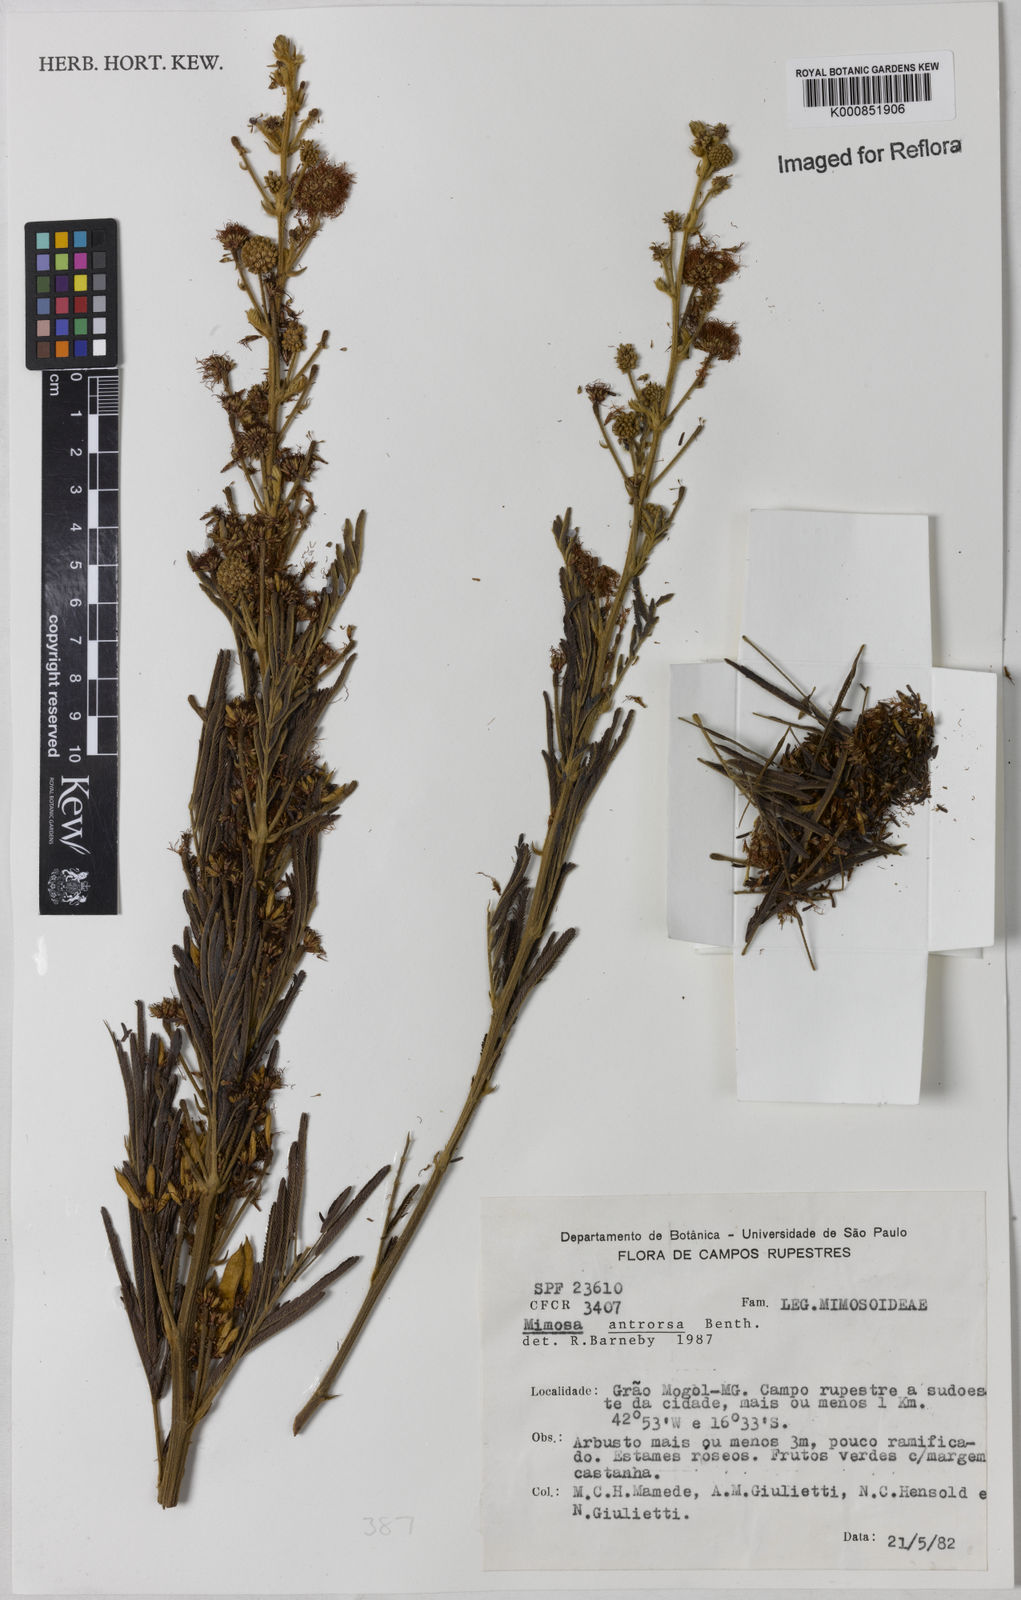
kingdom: Plantae
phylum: Tracheophyta
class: Magnoliopsida
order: Fabales
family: Fabaceae
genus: Mimosa
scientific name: Mimosa antrorsa
